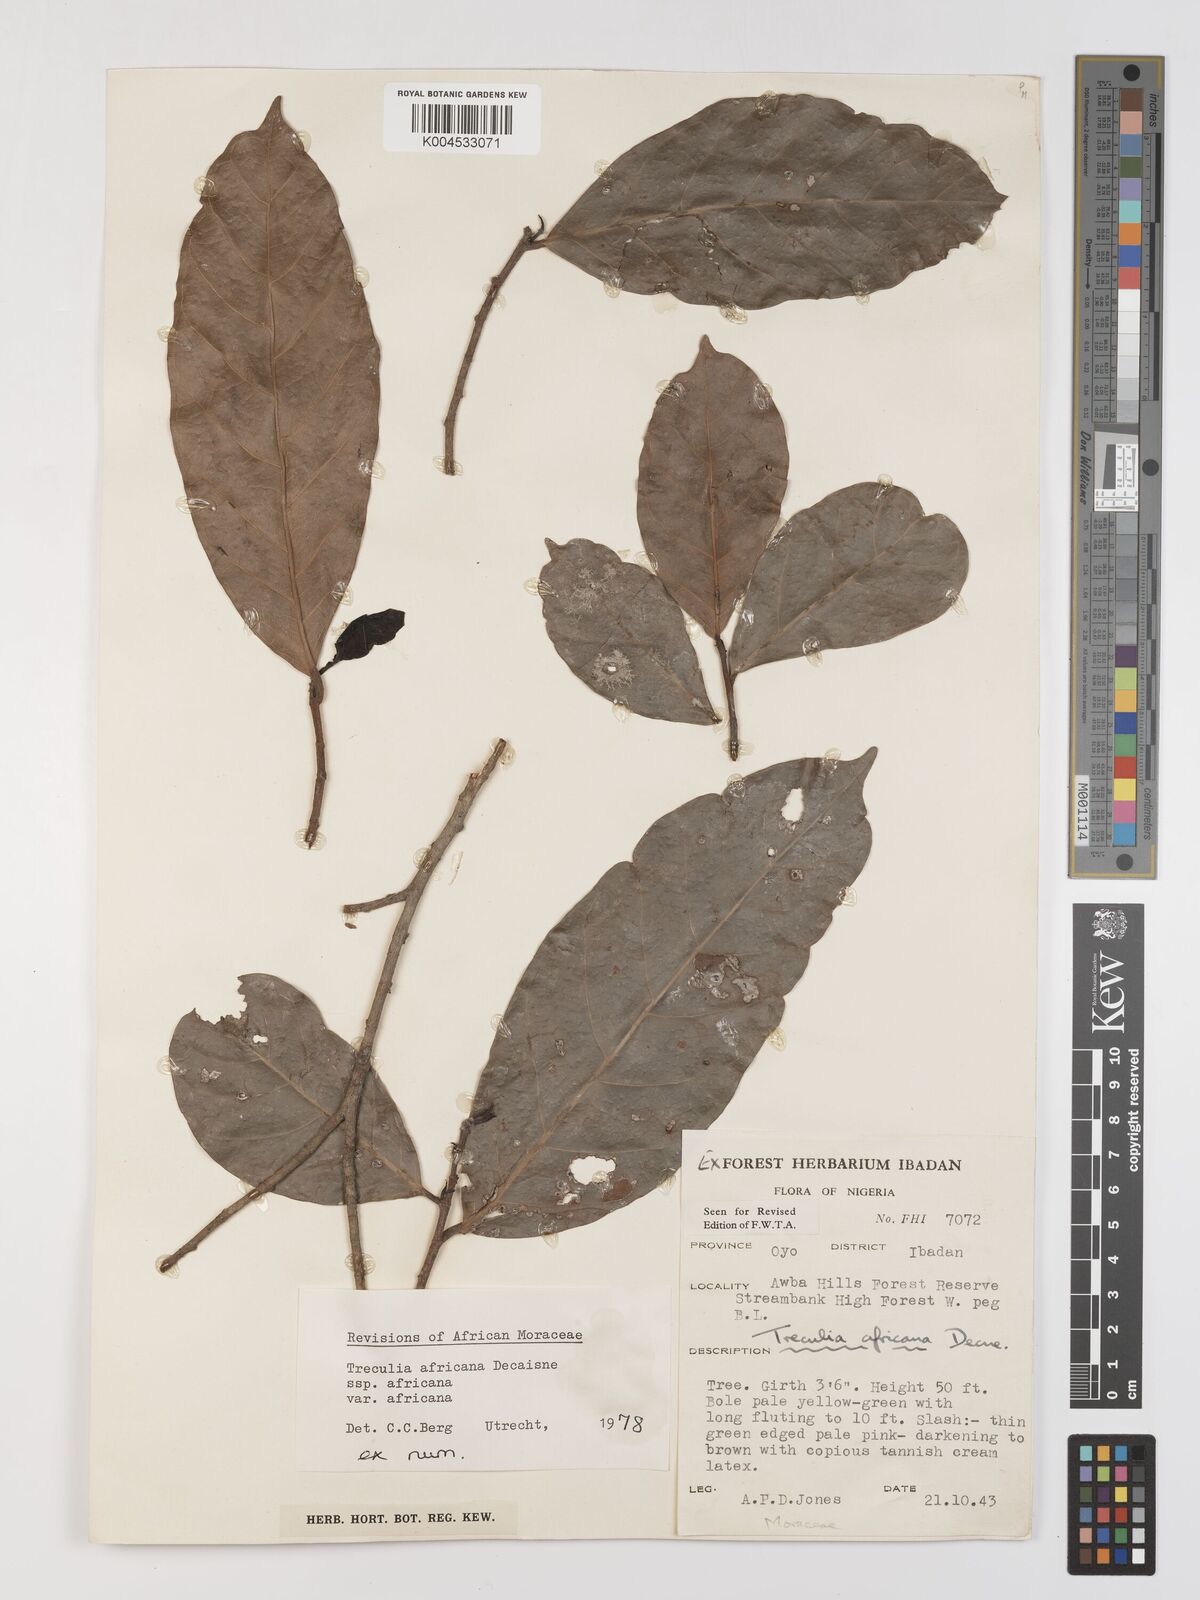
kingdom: Plantae
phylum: Tracheophyta
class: Magnoliopsida
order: Rosales
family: Moraceae
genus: Treculia
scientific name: Treculia africana
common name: African breadfruit
